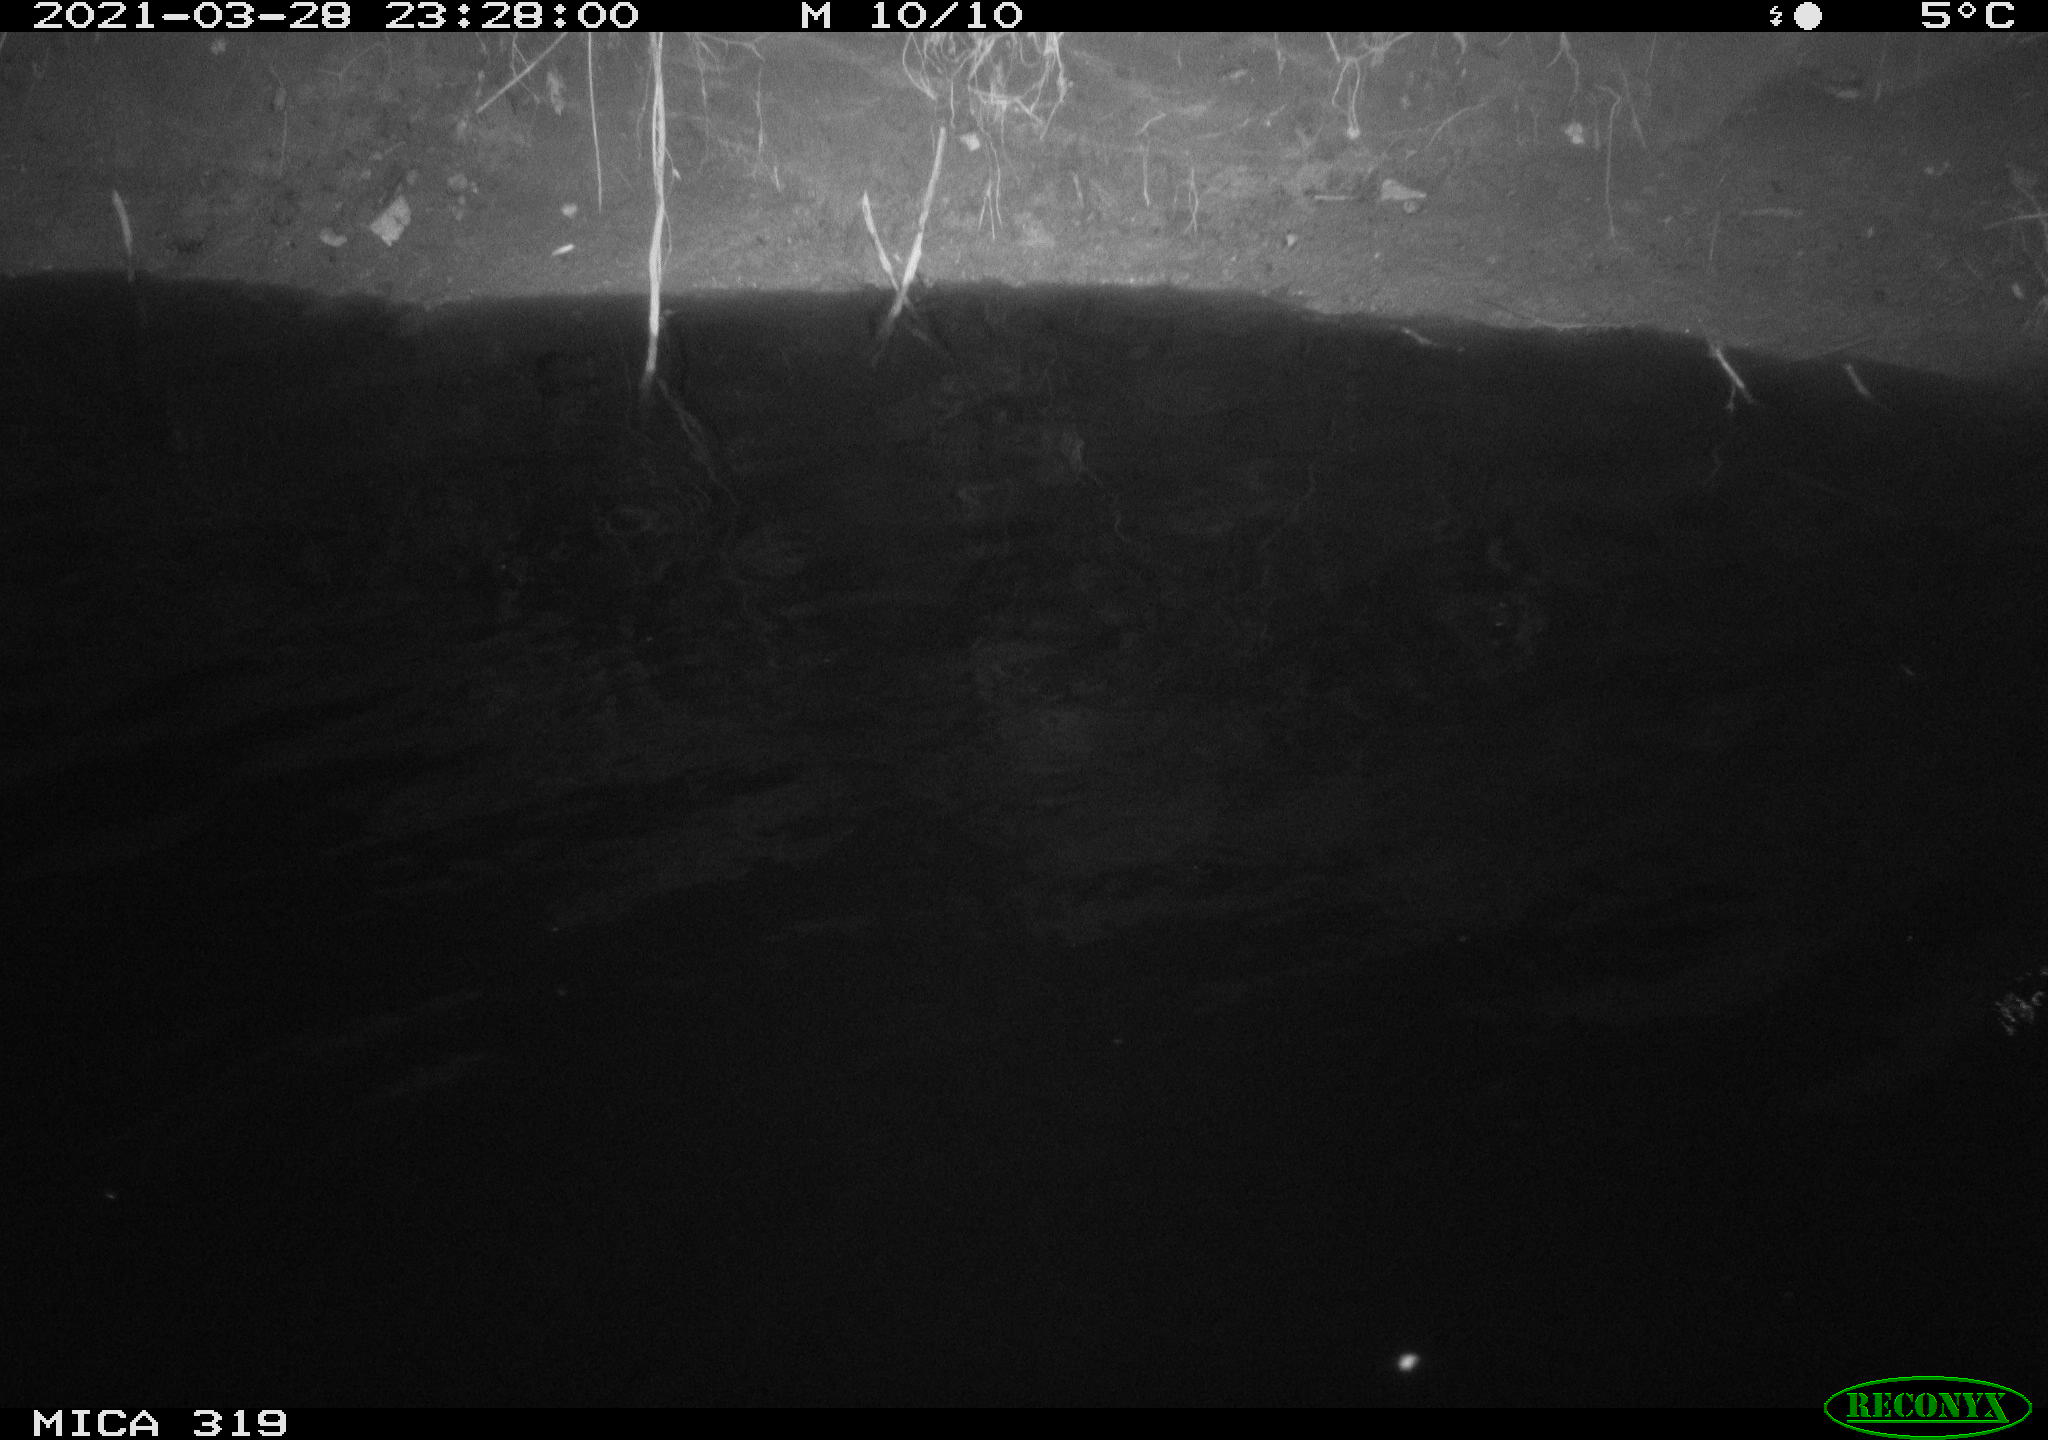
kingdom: Animalia
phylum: Chordata
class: Aves
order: Anseriformes
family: Anatidae
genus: Anas
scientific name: Anas platyrhynchos
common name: Mallard
